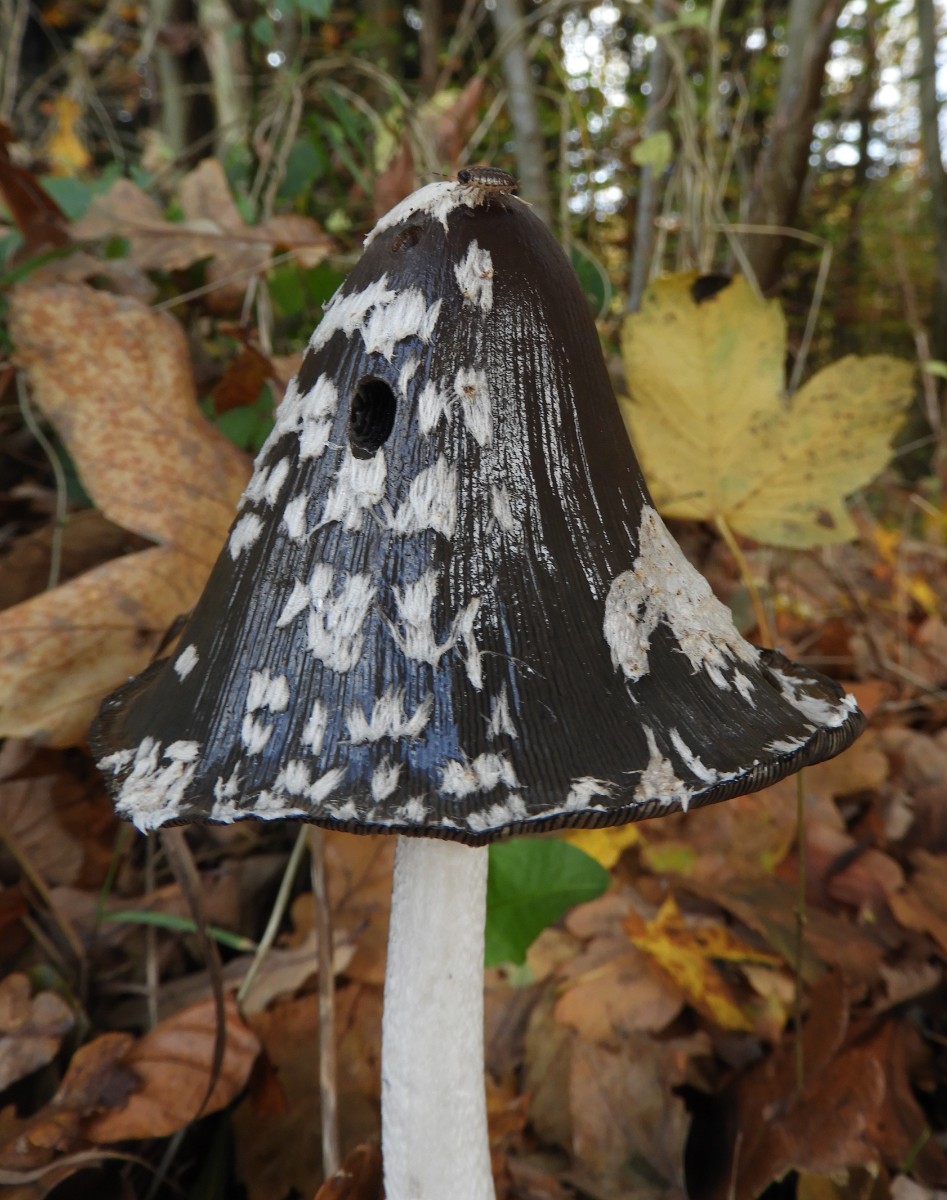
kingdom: Fungi
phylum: Basidiomycota
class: Agaricomycetes
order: Agaricales
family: Psathyrellaceae
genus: Coprinopsis
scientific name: Coprinopsis picacea
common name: skade-blækhat
